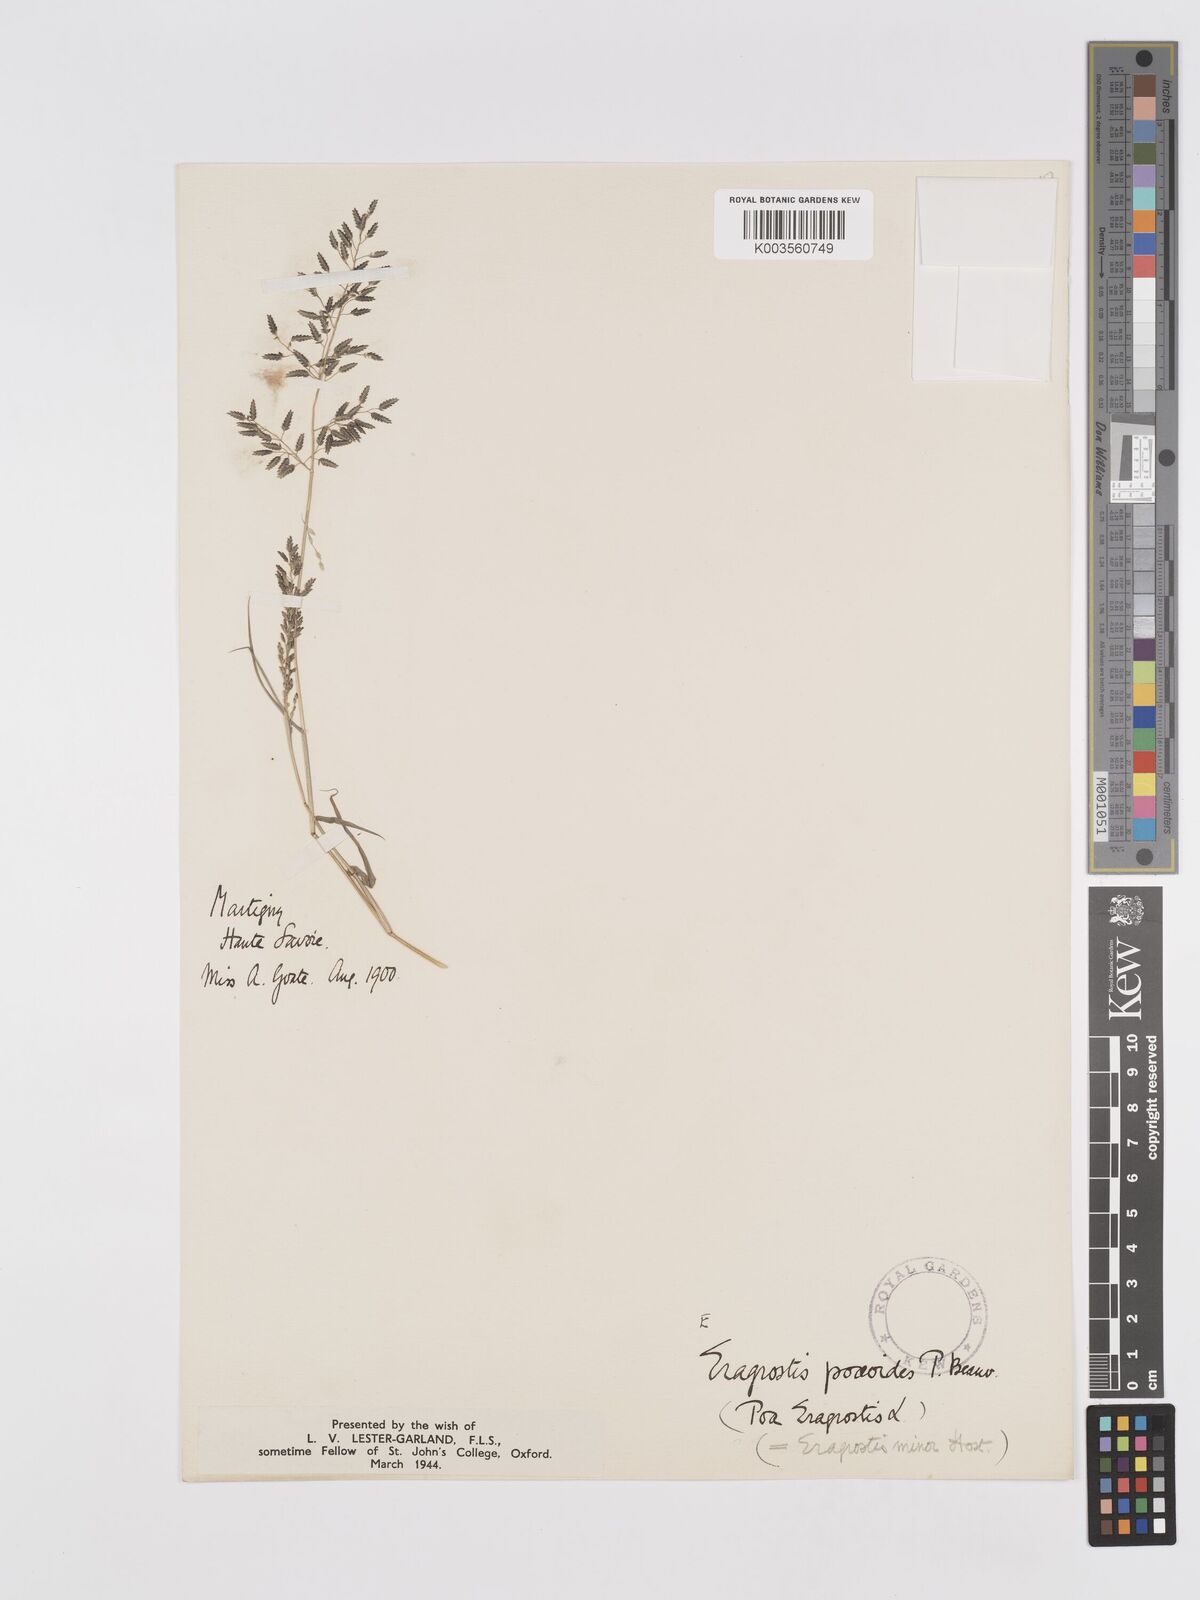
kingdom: Plantae
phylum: Tracheophyta
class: Liliopsida
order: Poales
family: Poaceae
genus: Eragrostis
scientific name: Eragrostis minor
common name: Small love-grass
